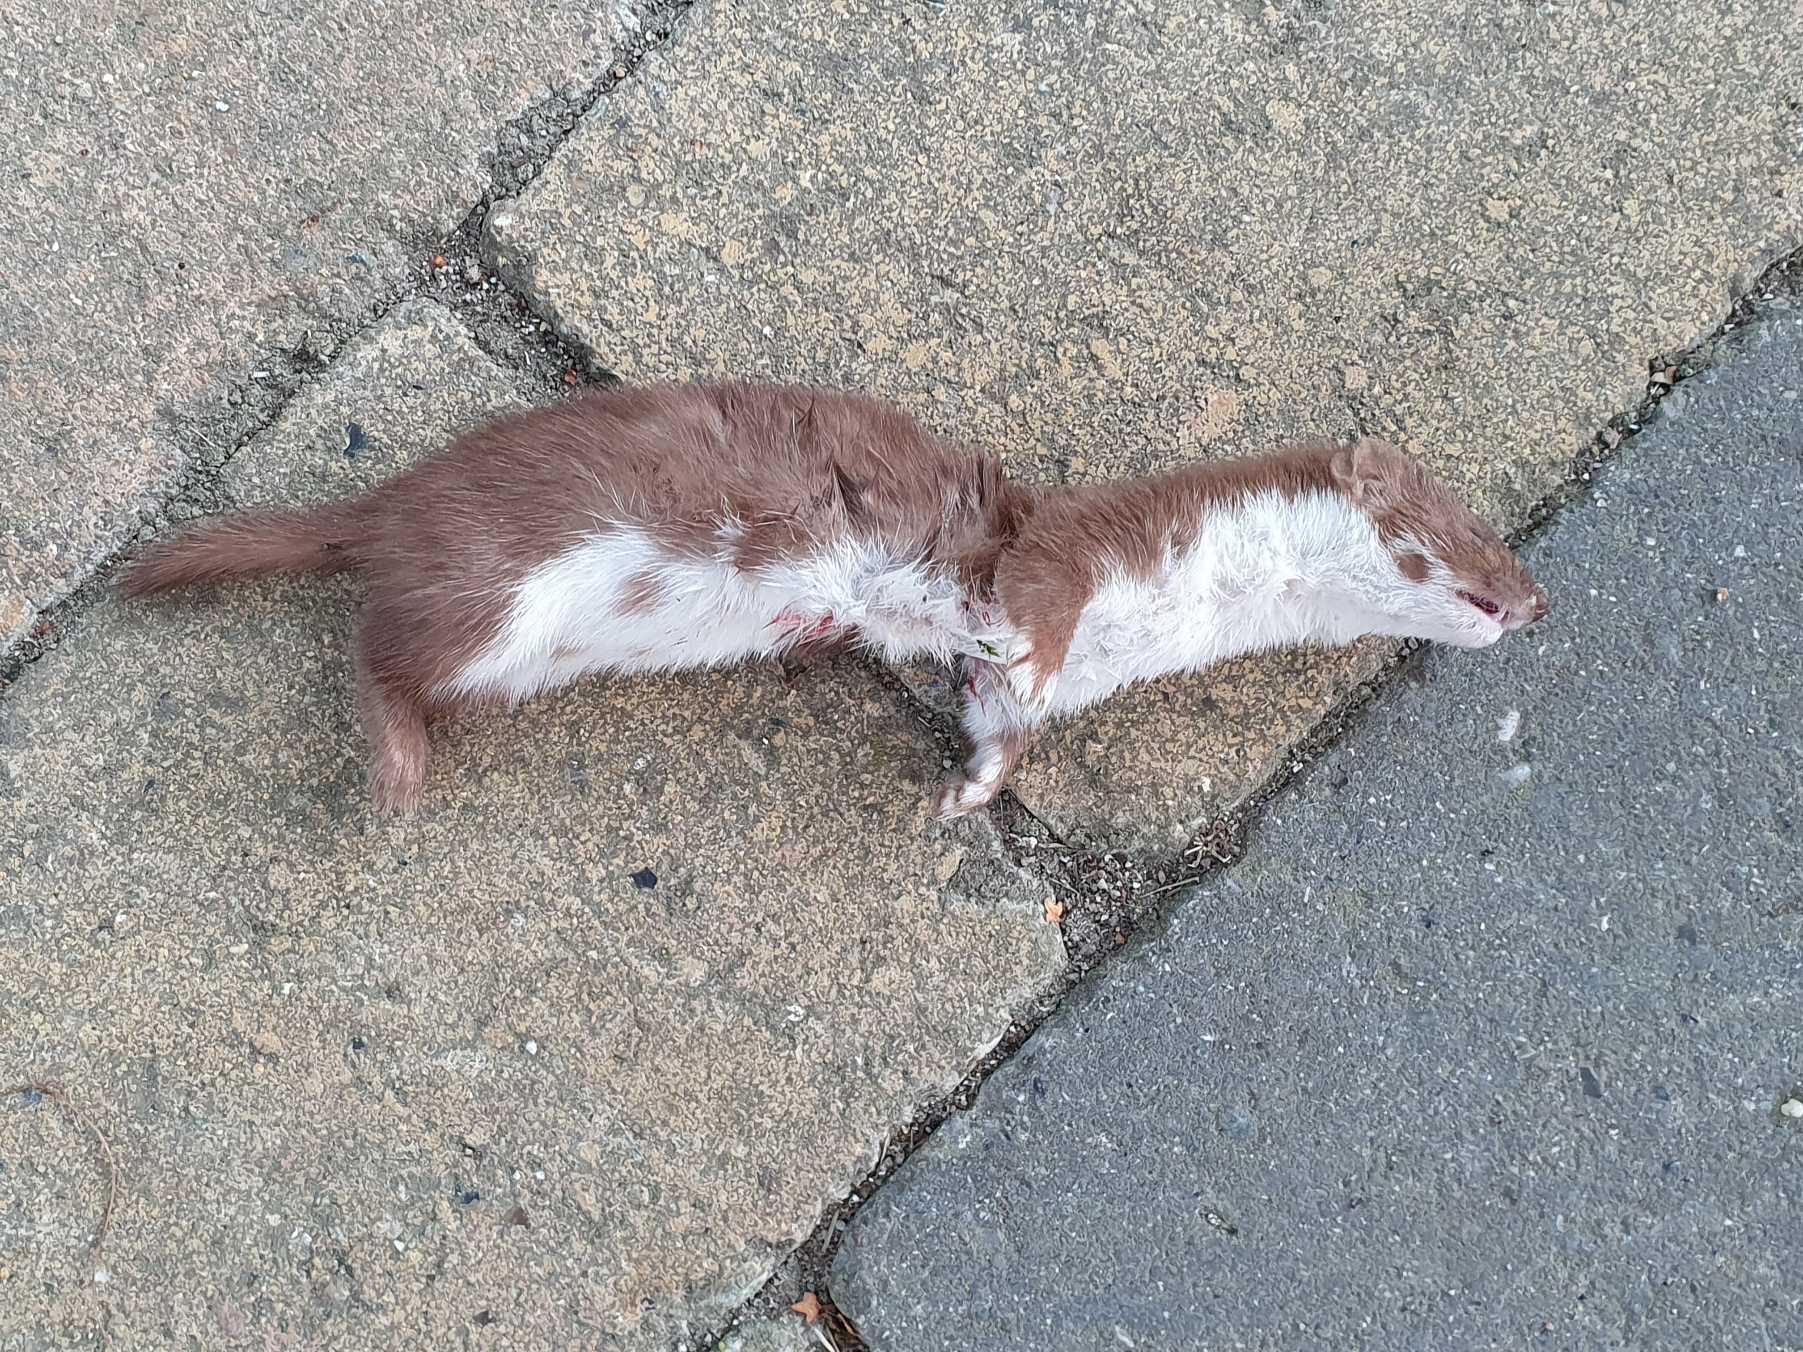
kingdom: Animalia
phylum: Chordata
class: Mammalia
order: Carnivora
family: Mustelidae
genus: Mustela
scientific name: Mustela nivalis
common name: Brud
